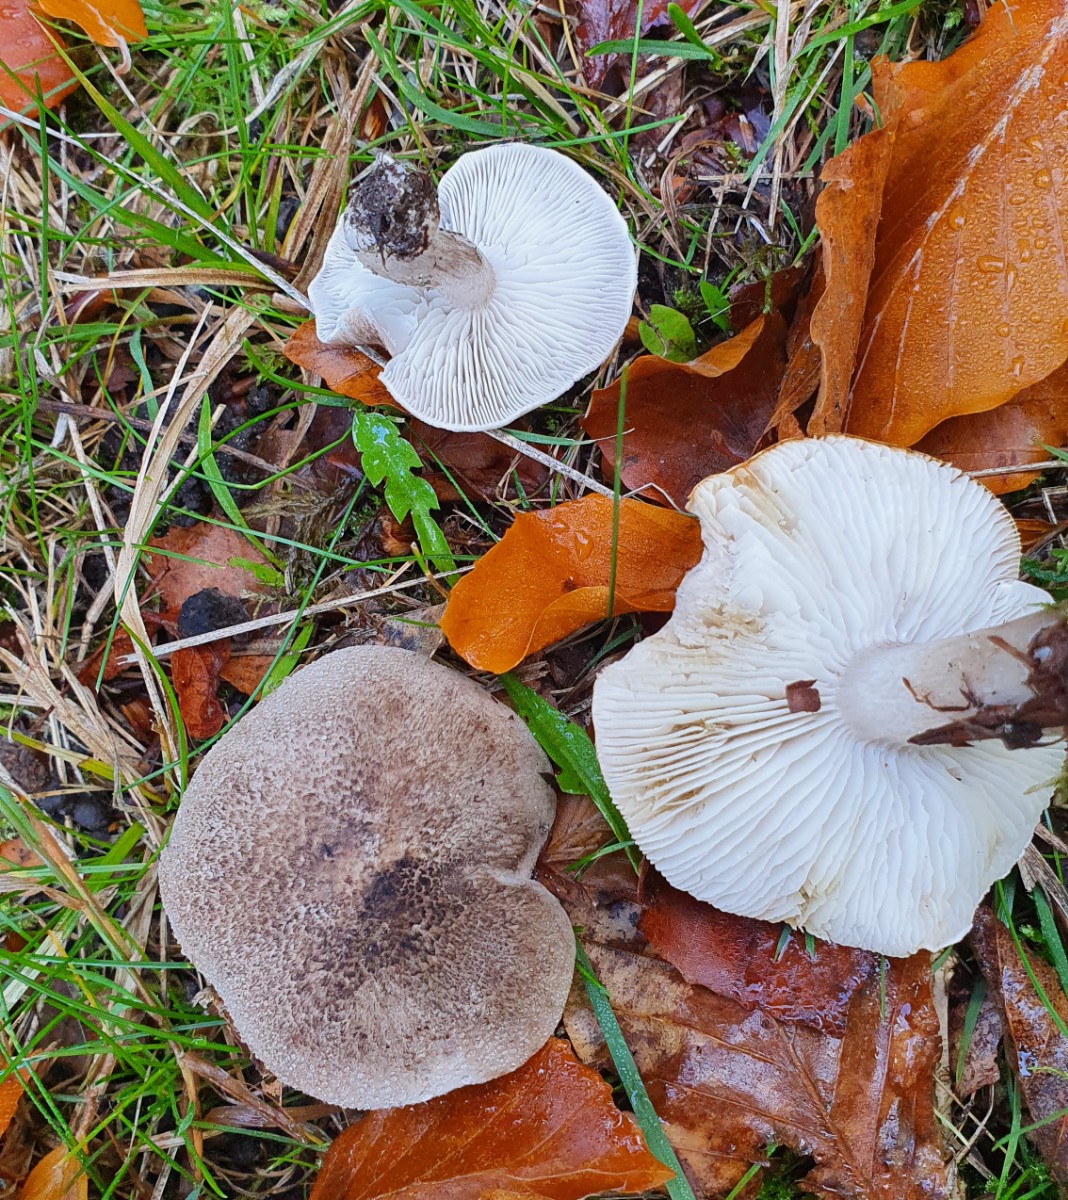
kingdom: Fungi
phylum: Basidiomycota
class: Agaricomycetes
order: Agaricales
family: Tricholomataceae
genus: Tricholoma
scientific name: Tricholoma scalpturatum
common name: gulplettet ridderhat
